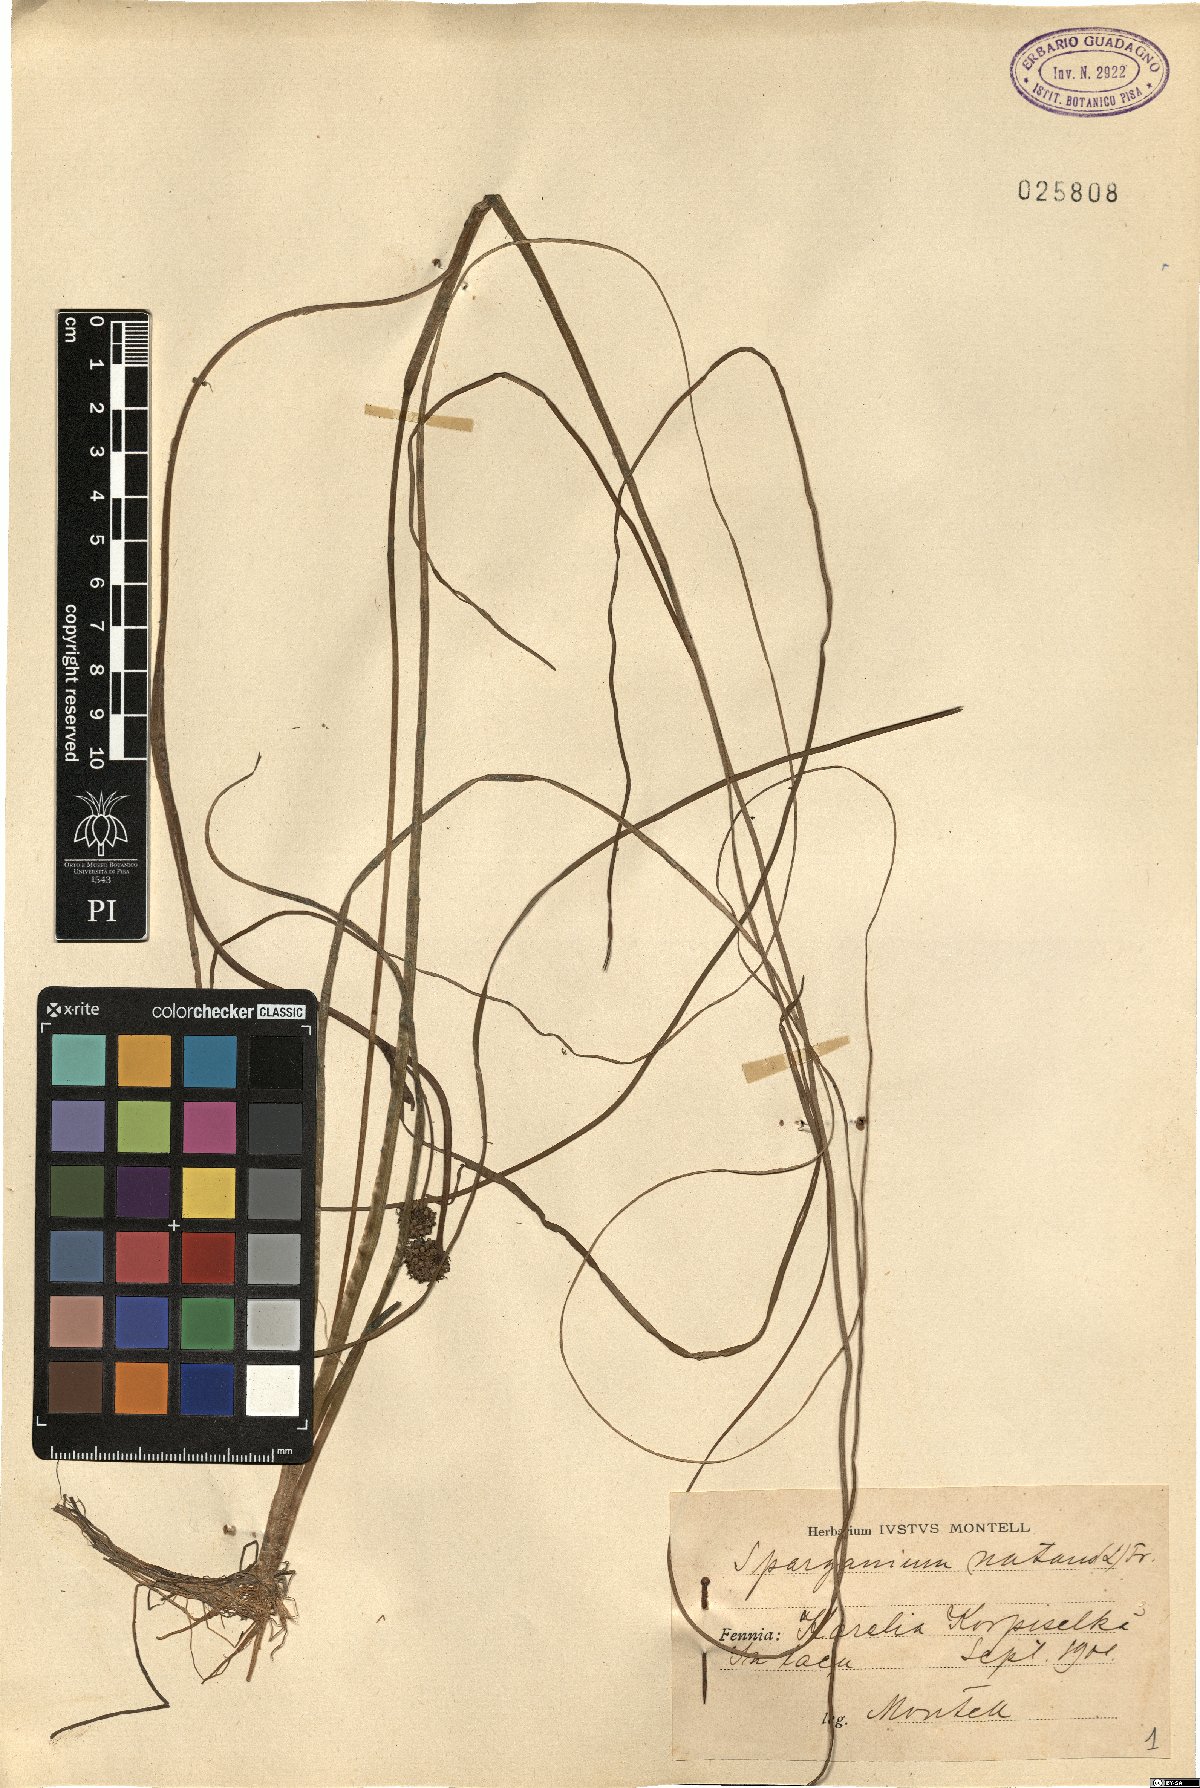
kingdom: Plantae
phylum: Tracheophyta
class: Liliopsida
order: Poales
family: Typhaceae
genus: Sparganium
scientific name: Sparganium gramineum
